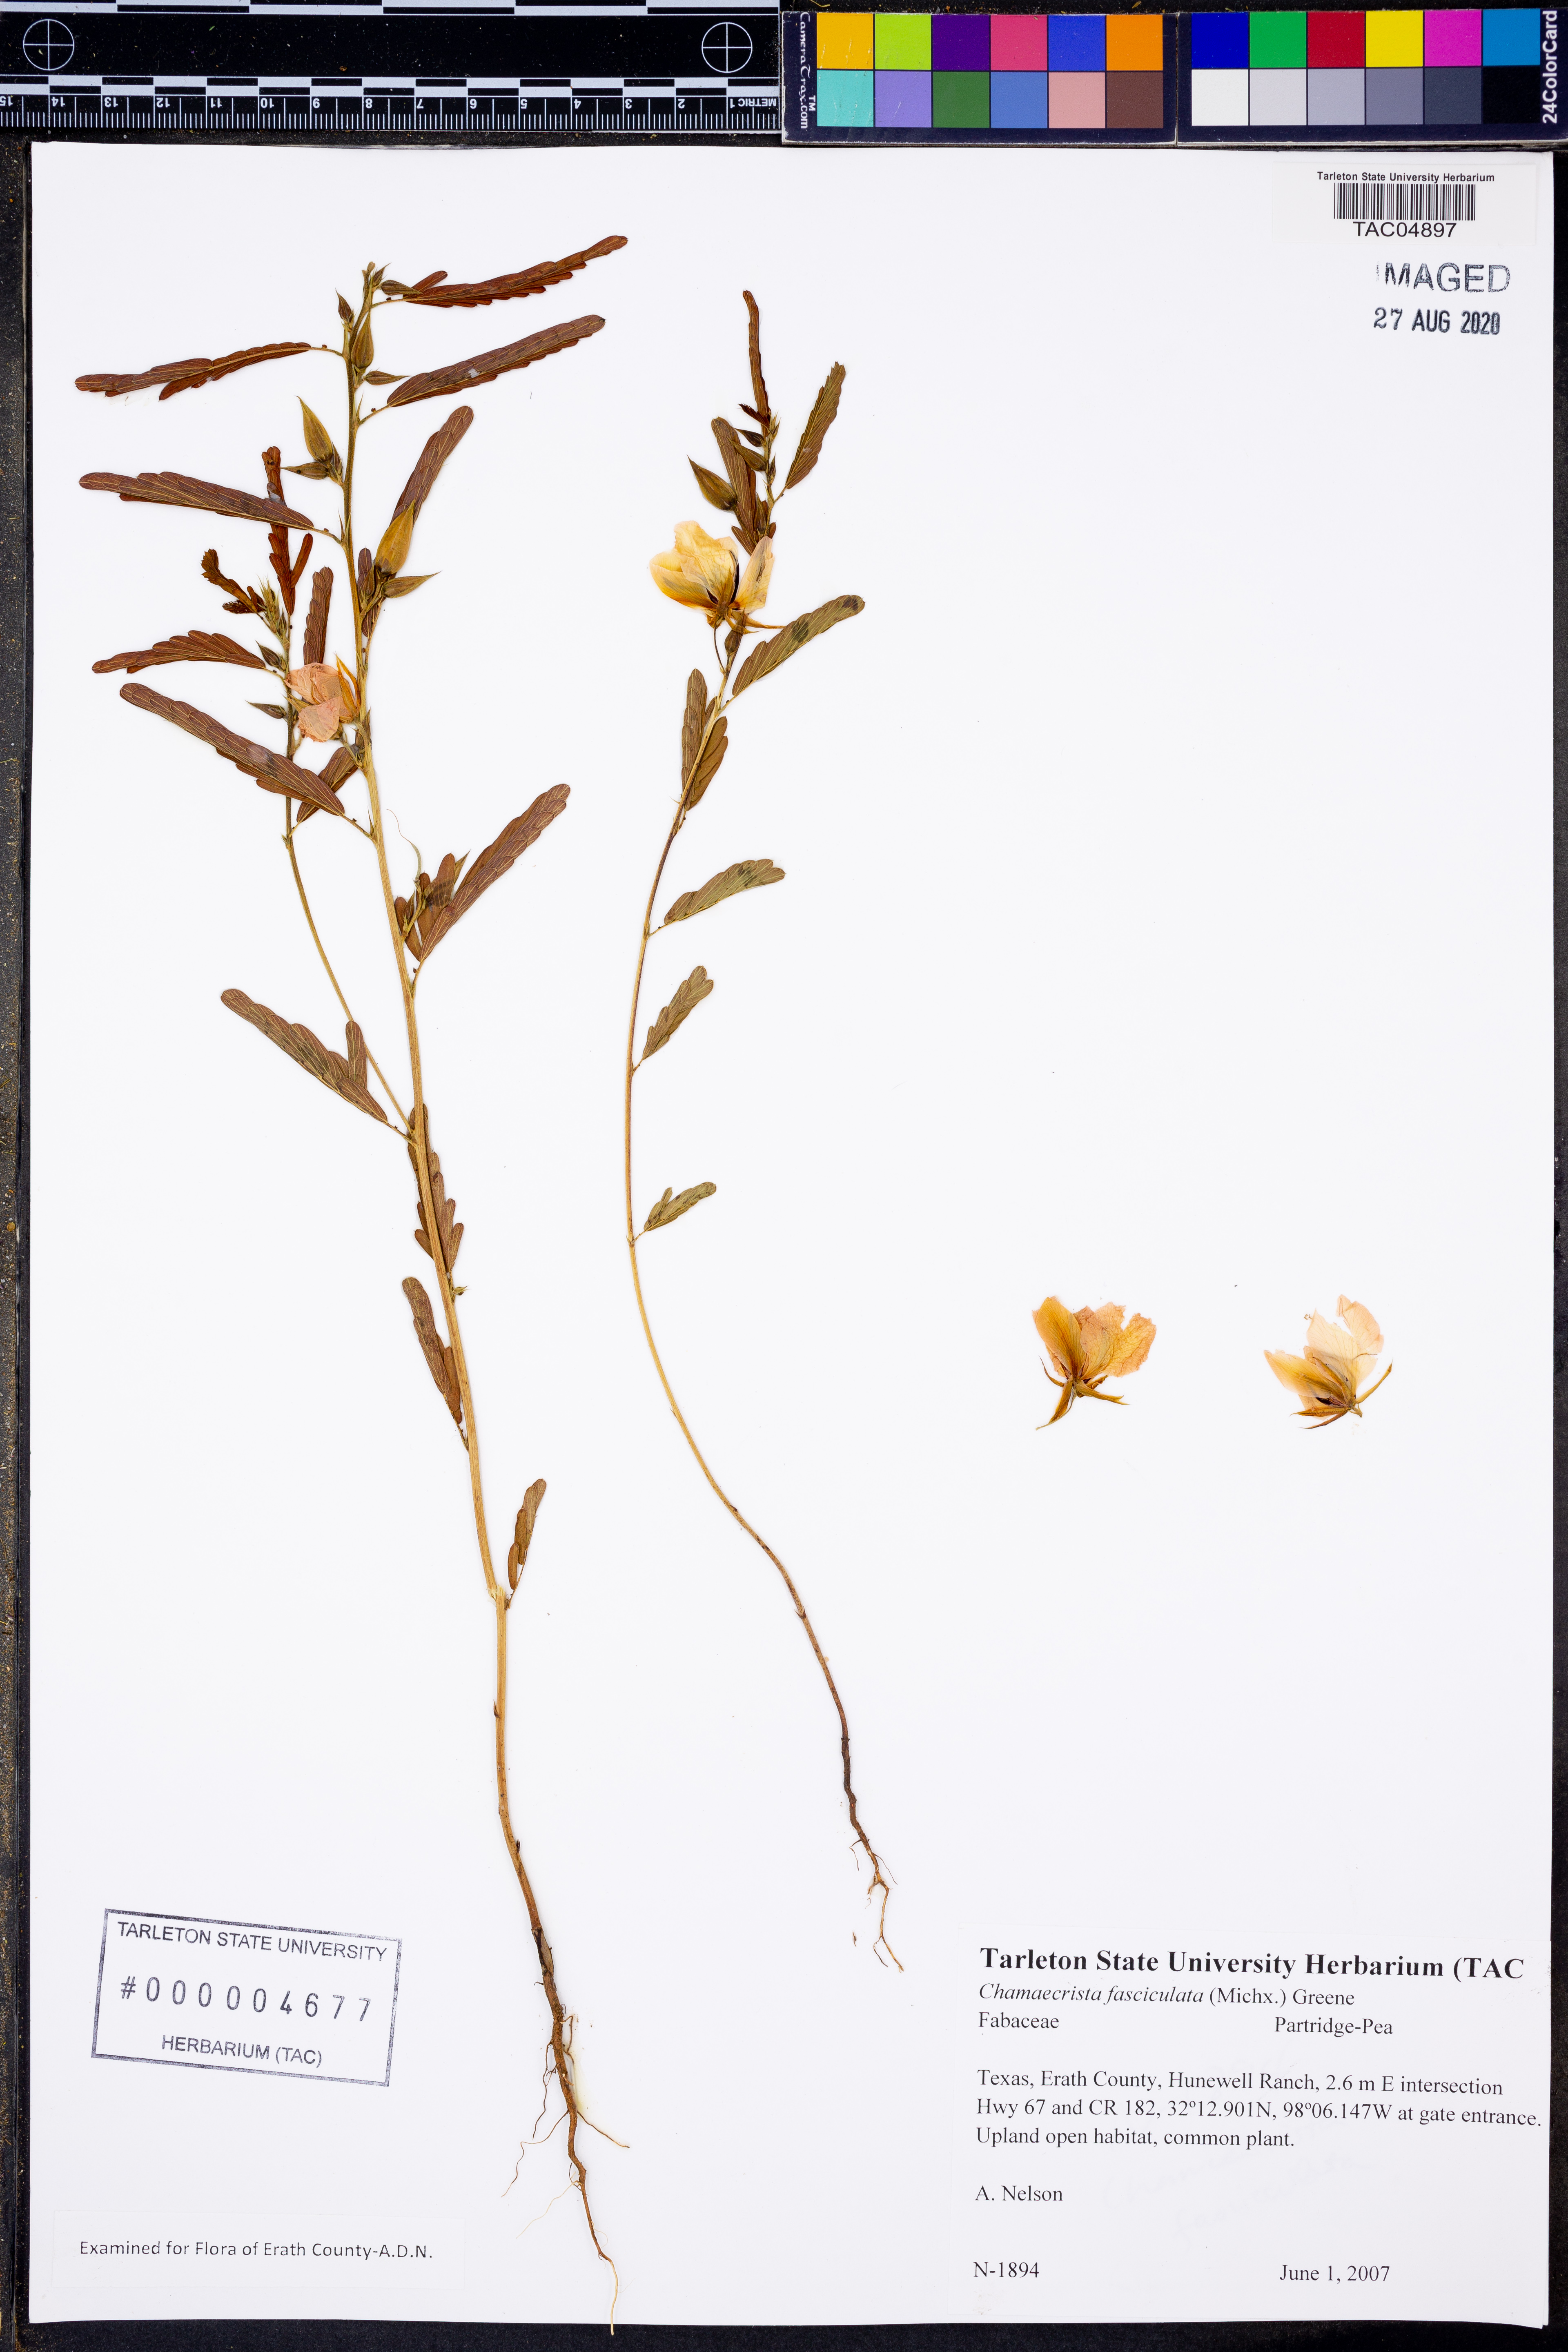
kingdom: Plantae
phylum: Tracheophyta
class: Magnoliopsida
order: Fabales
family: Fabaceae
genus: Chamaecrista
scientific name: Chamaecrista fasciculata
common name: Golden cassia
